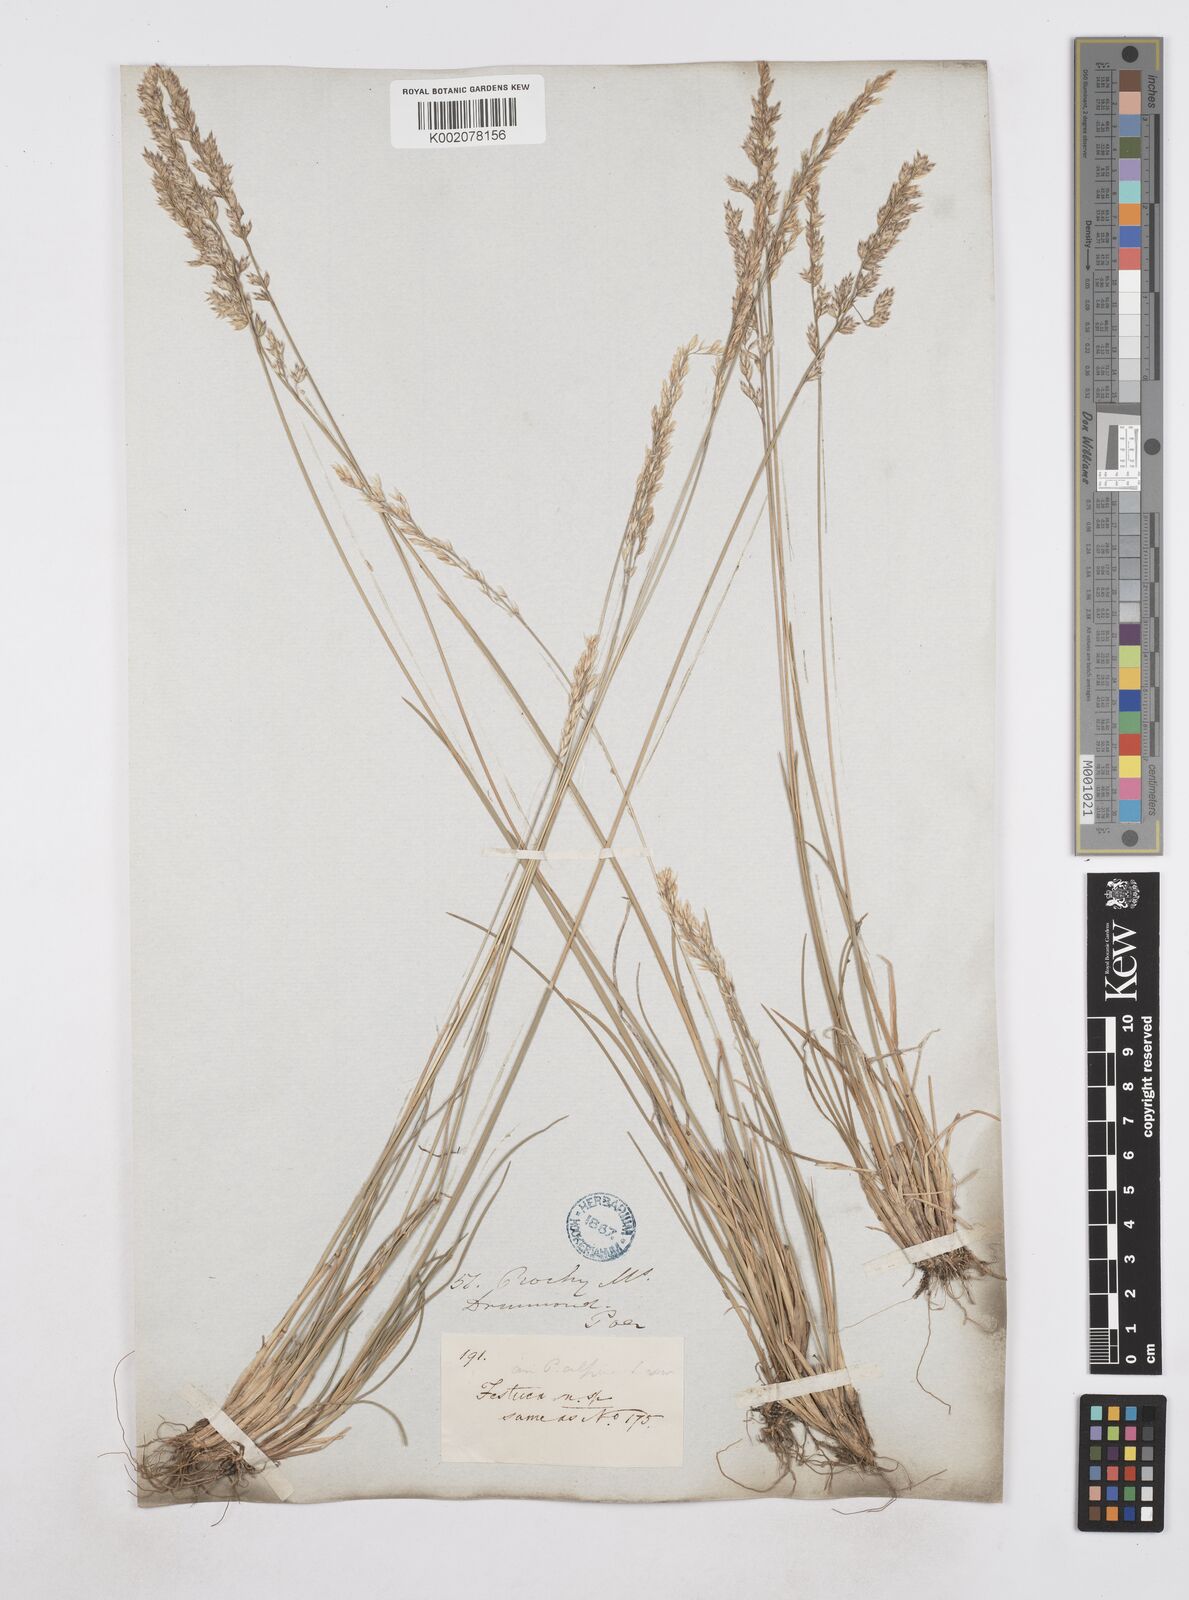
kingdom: Plantae
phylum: Tracheophyta
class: Liliopsida
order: Poales
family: Poaceae
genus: Poa
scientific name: Poa
